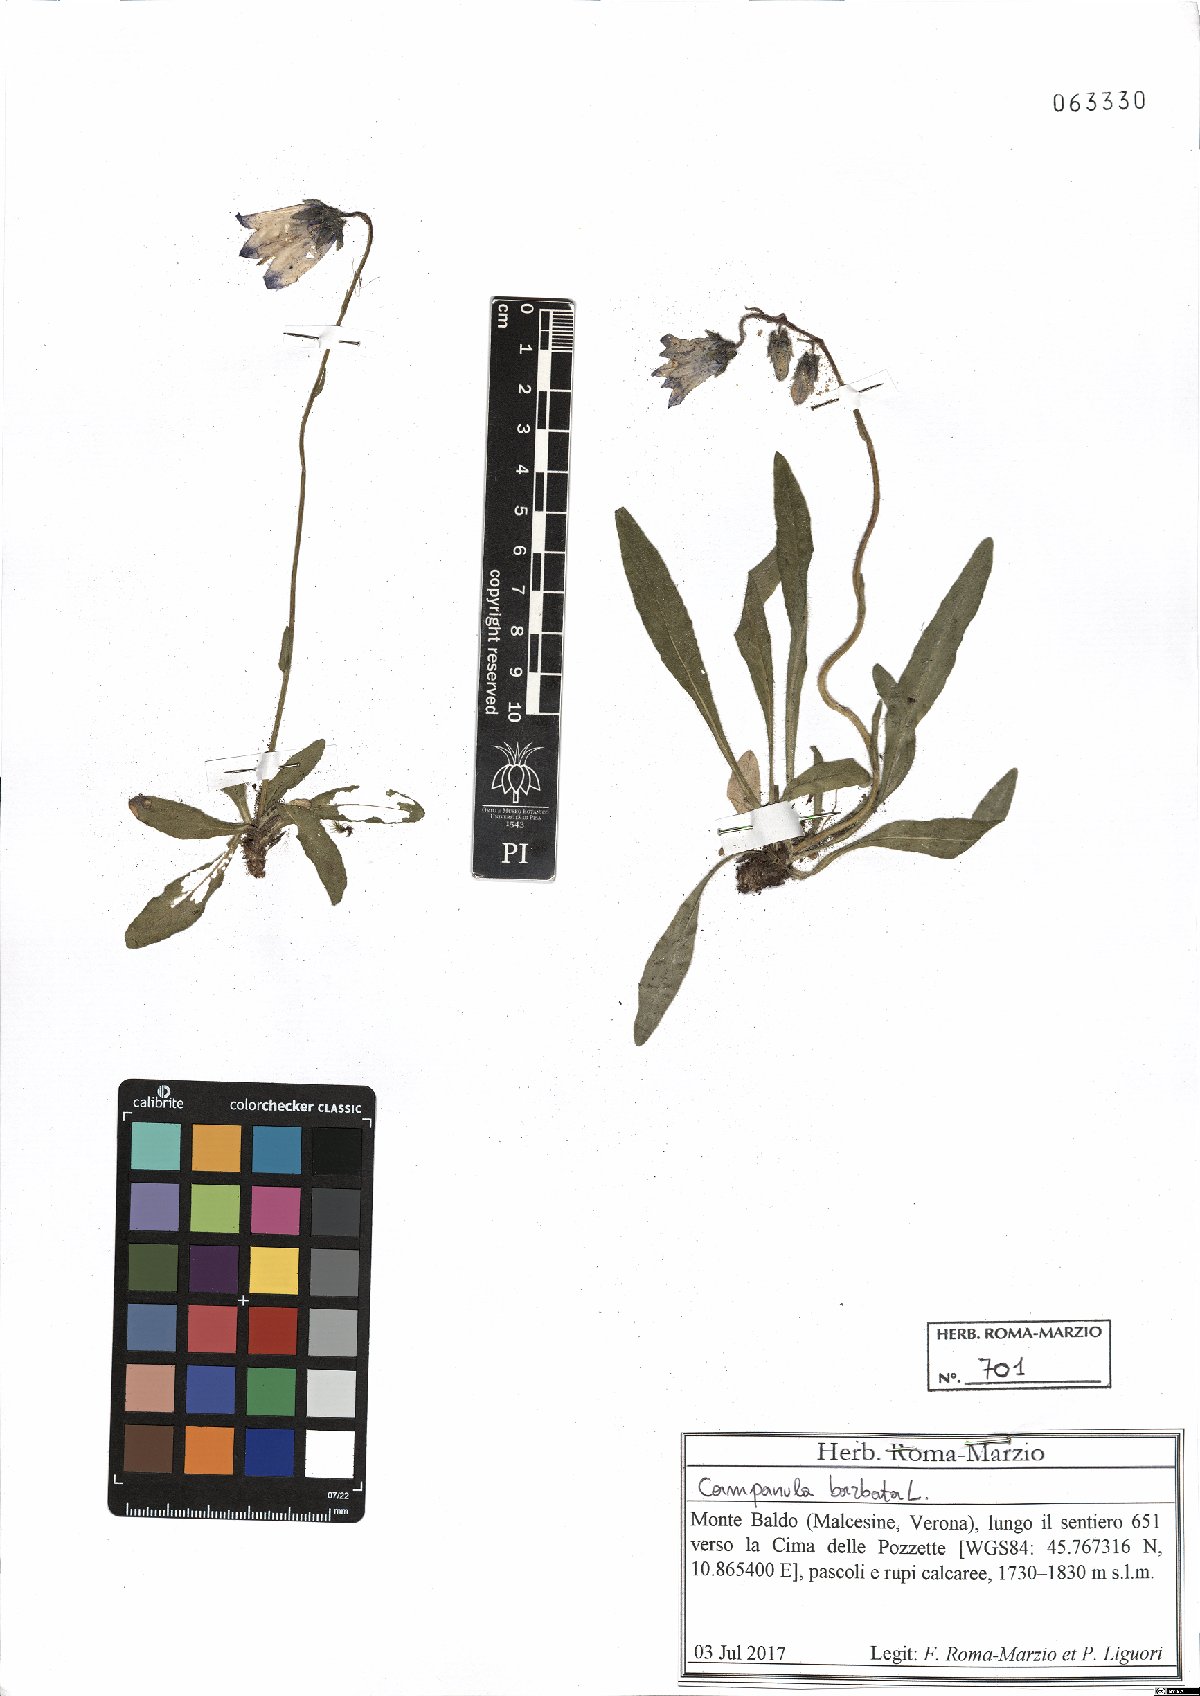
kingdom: Plantae
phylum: Tracheophyta
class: Magnoliopsida
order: Asterales
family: Campanulaceae
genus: Campanula
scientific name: Campanula barbata
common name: Bearded bellflower
